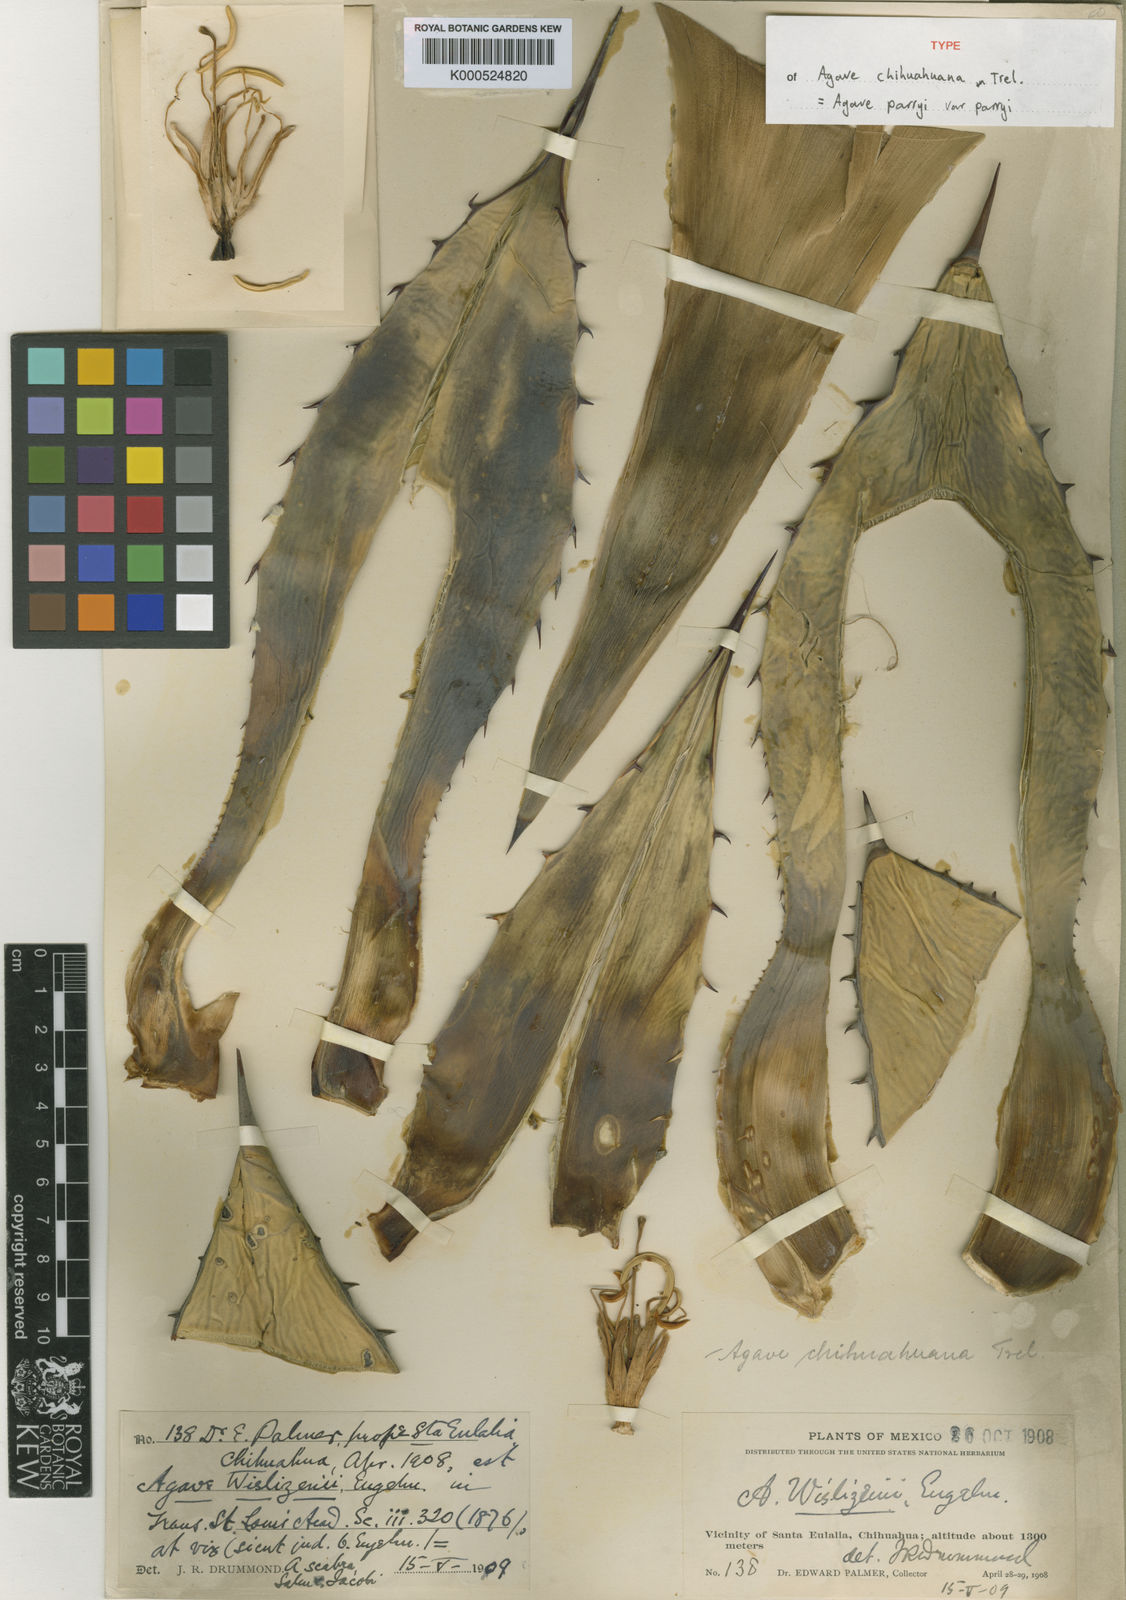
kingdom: Plantae
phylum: Tracheophyta
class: Liliopsida
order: Asparagales
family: Asparagaceae
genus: Agave
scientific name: Agave parryi
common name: Parry's agave
